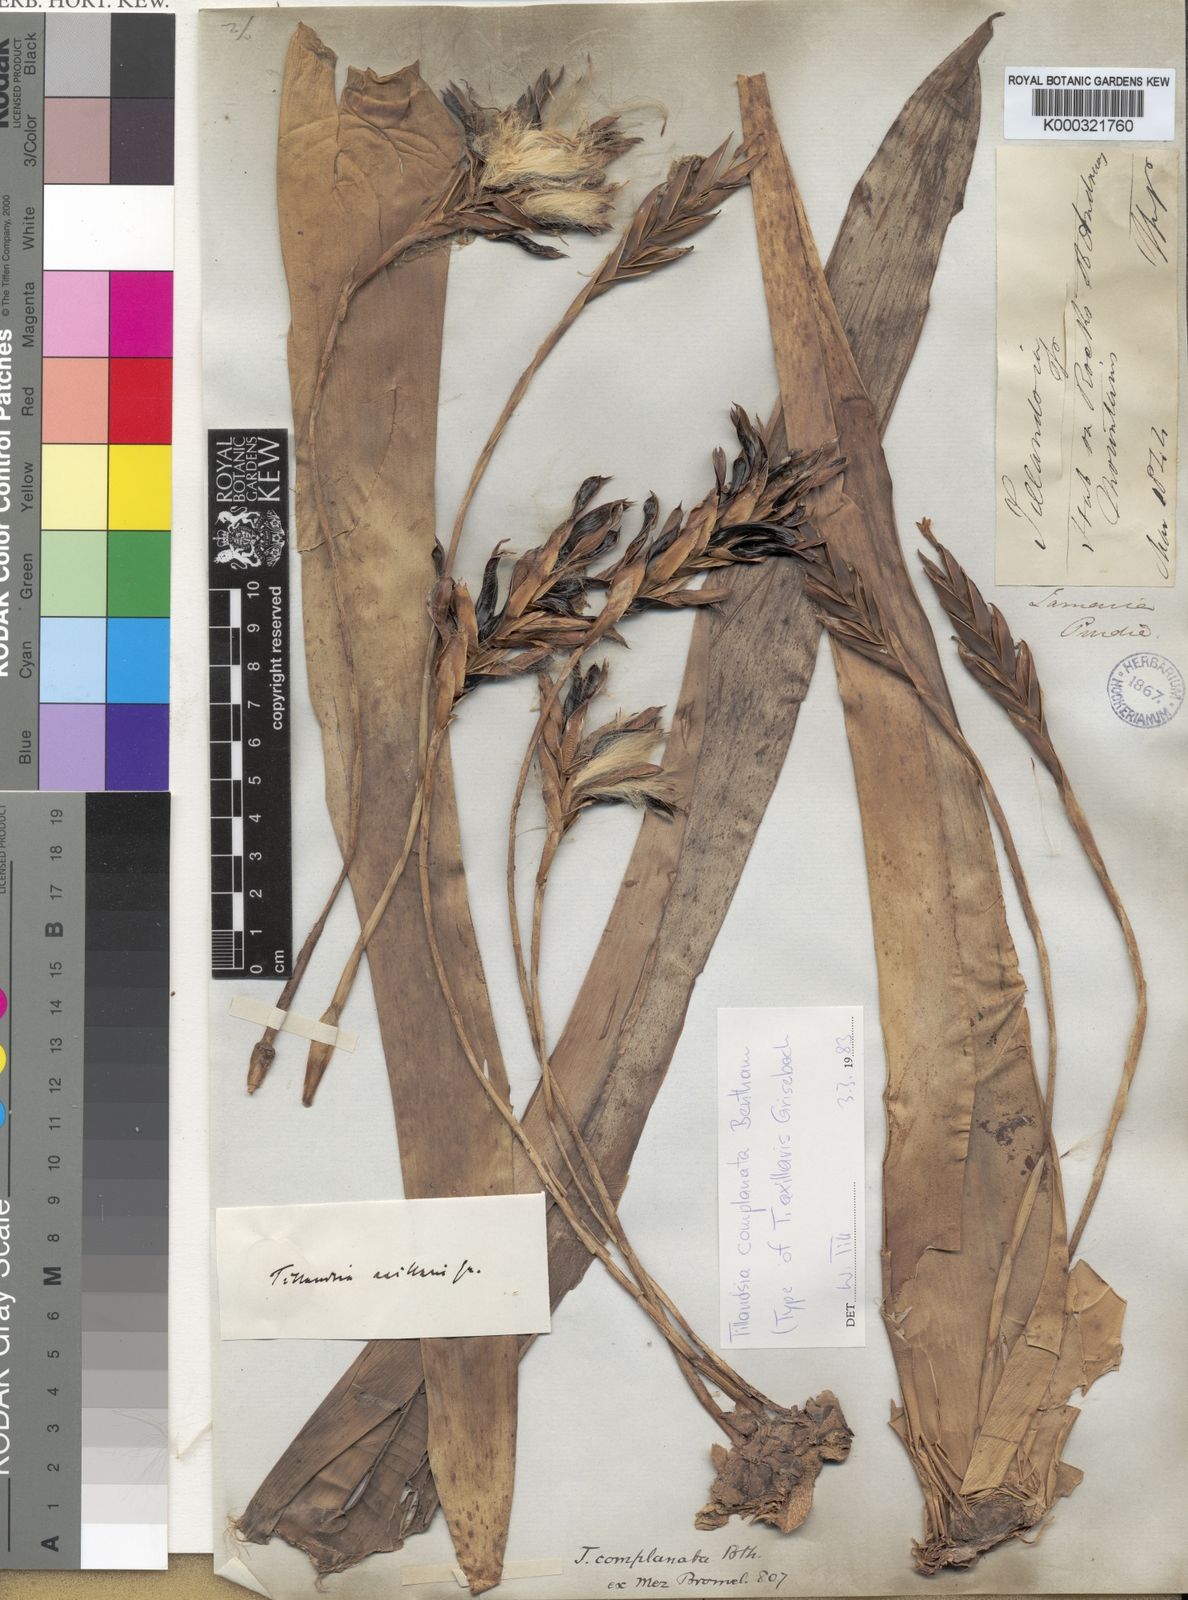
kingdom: Plantae
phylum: Tracheophyta
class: Liliopsida
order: Poales
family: Bromeliaceae
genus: Tillandsia
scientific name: Tillandsia complanata
